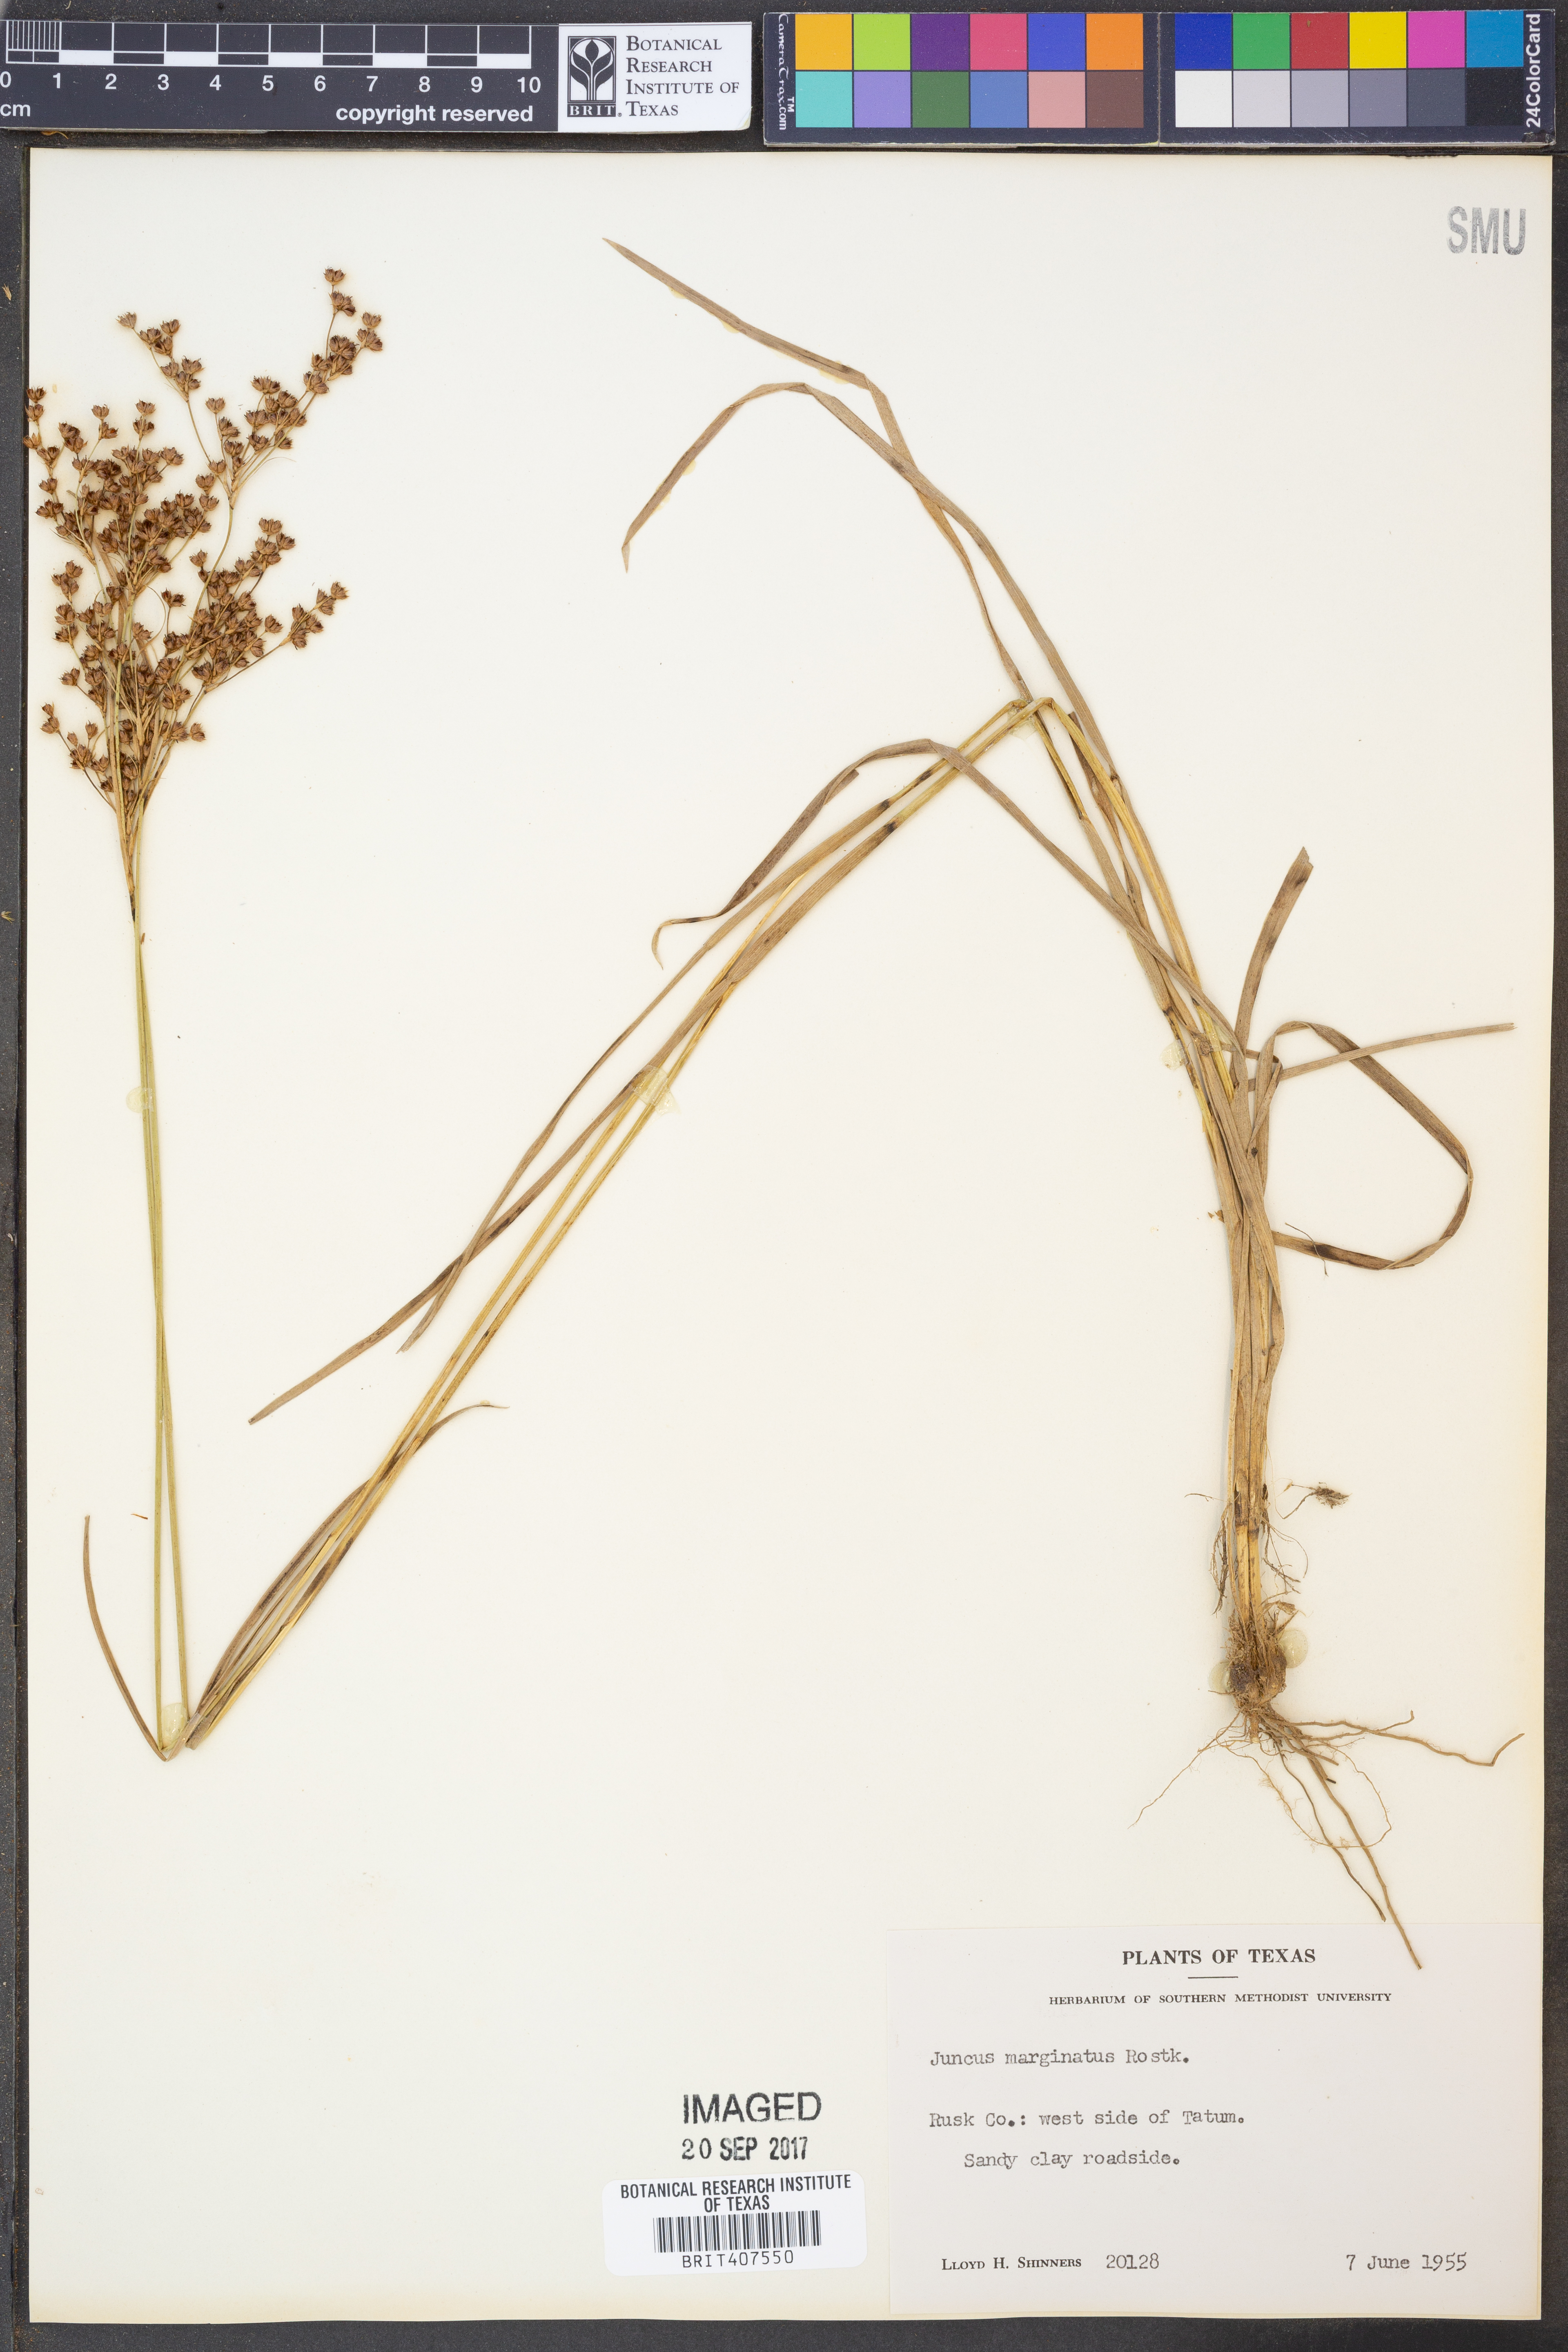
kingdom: Plantae
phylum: Tracheophyta
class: Liliopsida
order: Poales
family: Juncaceae
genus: Juncus
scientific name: Juncus marginatus
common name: Grass-leaf rush
